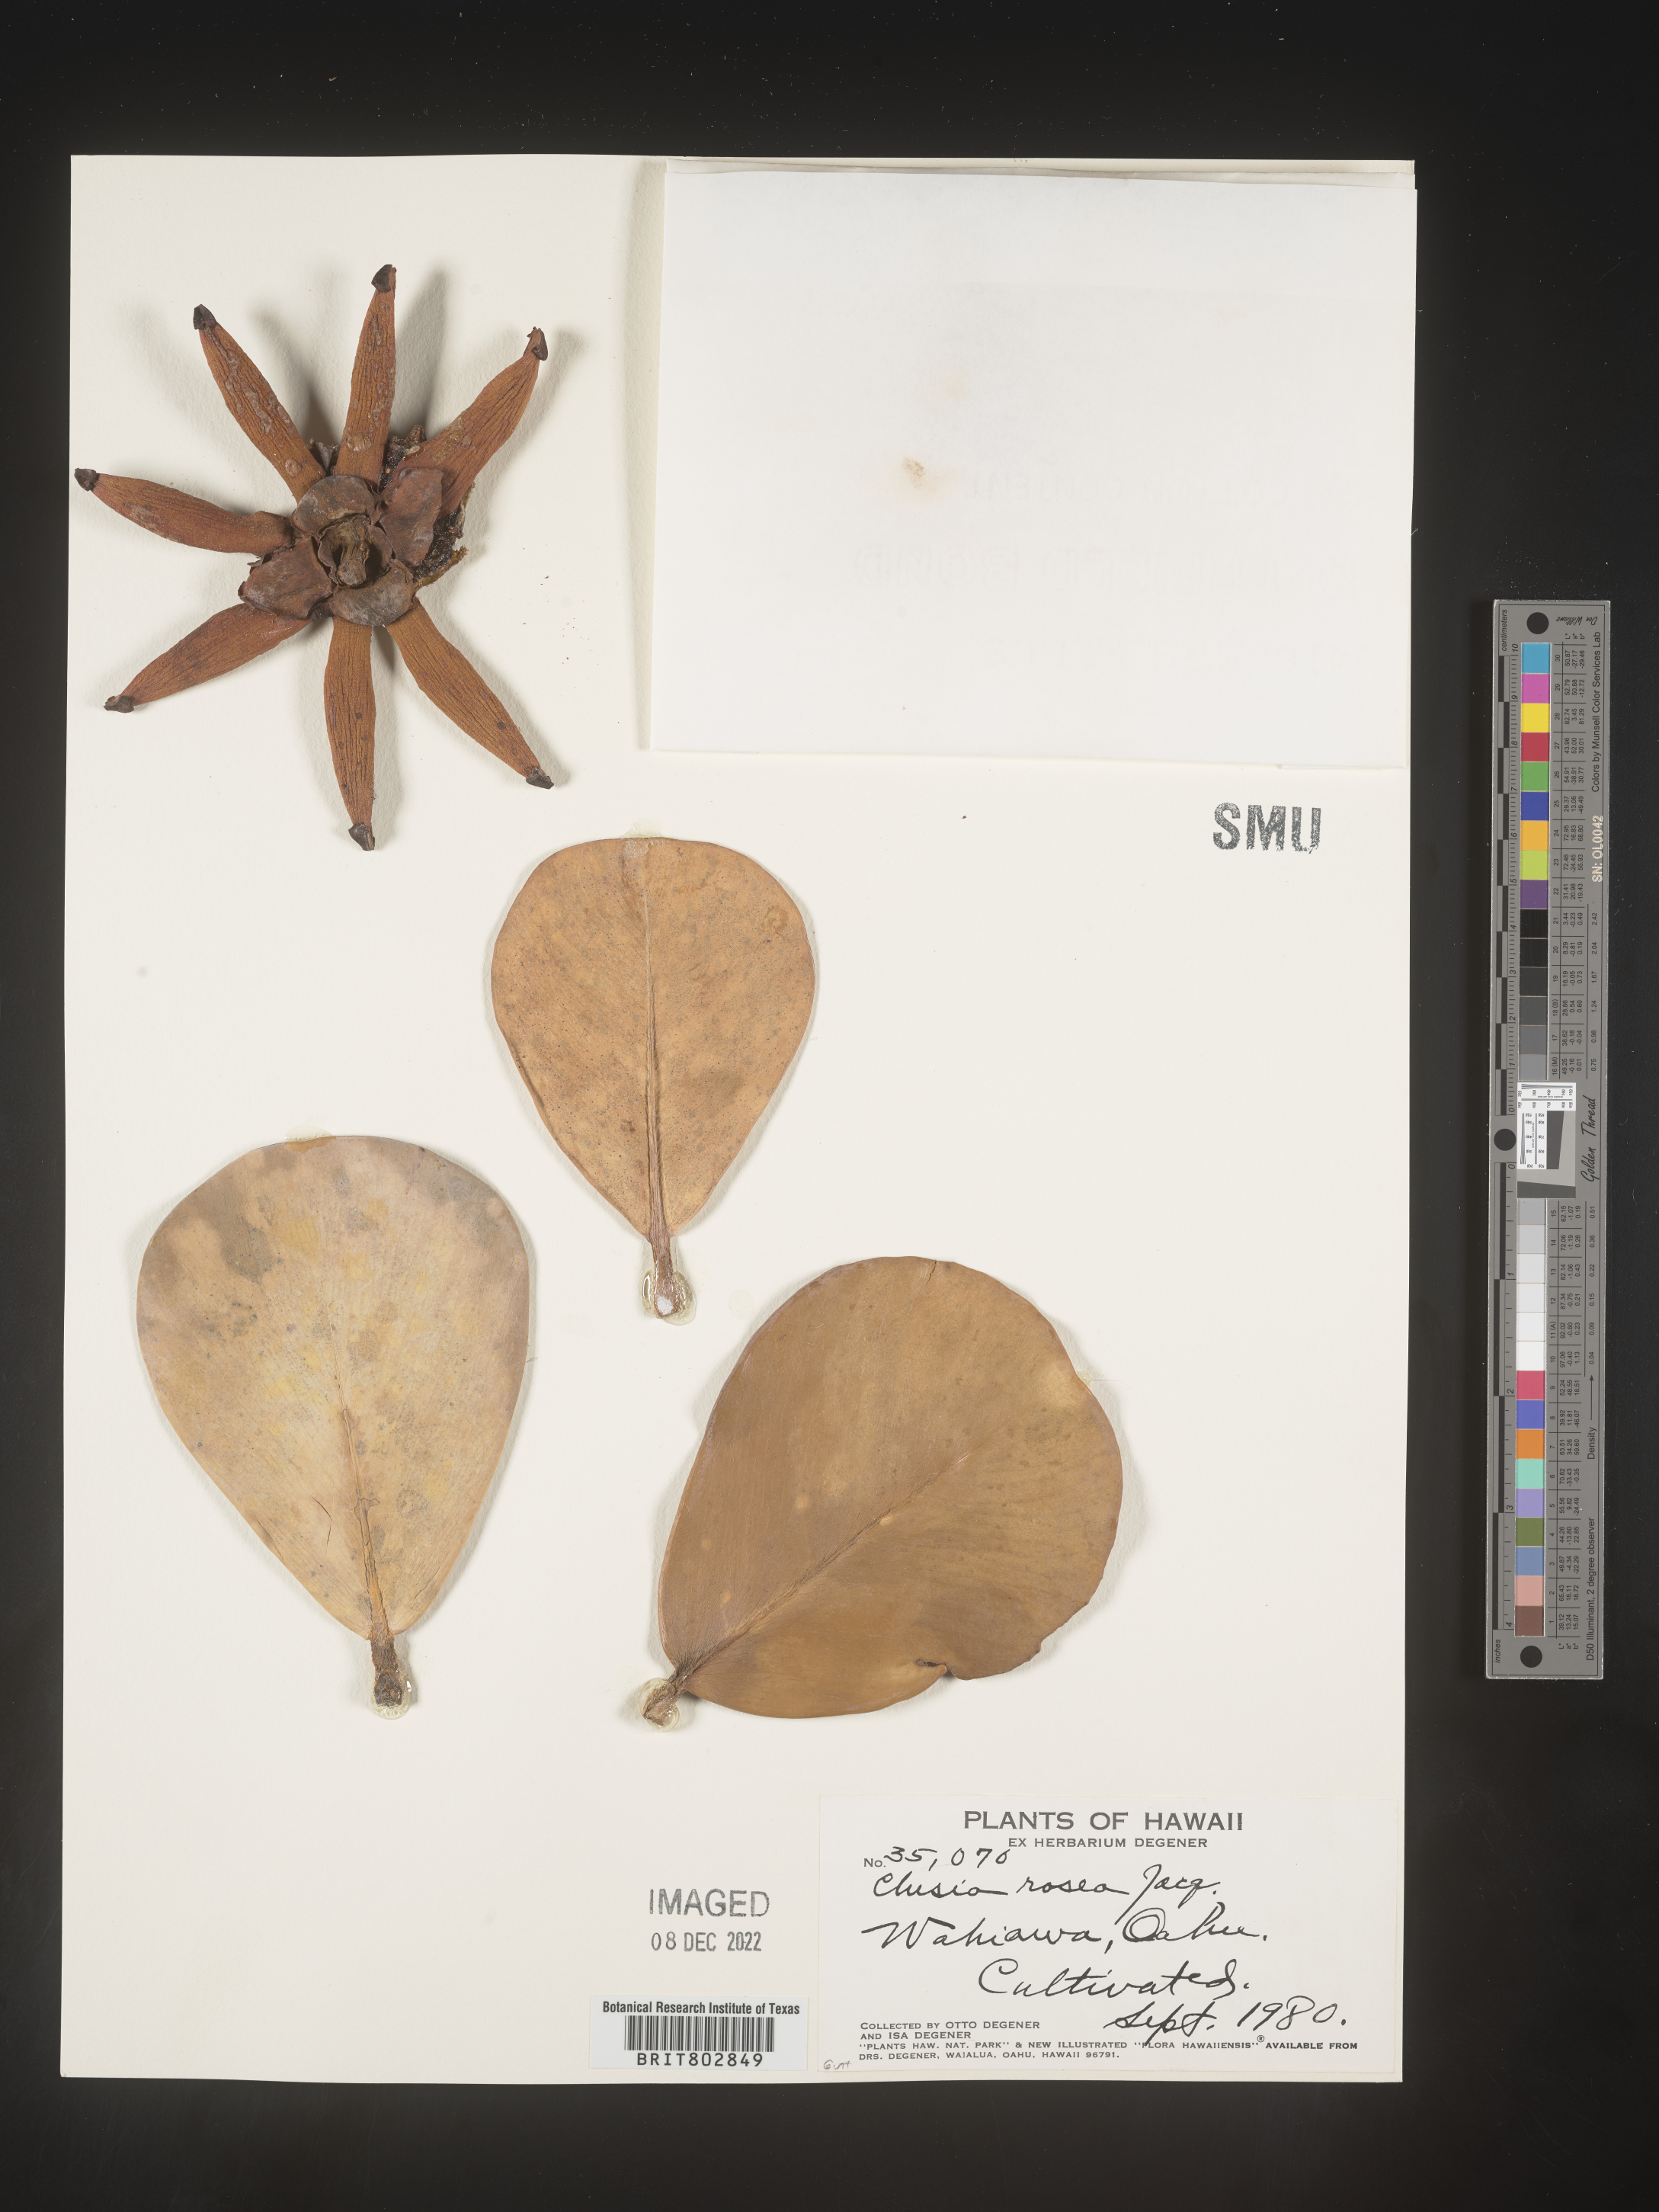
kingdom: Plantae
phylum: Tracheophyta
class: Magnoliopsida
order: Malpighiales
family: Clusiaceae
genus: Clusia
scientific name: Clusia
